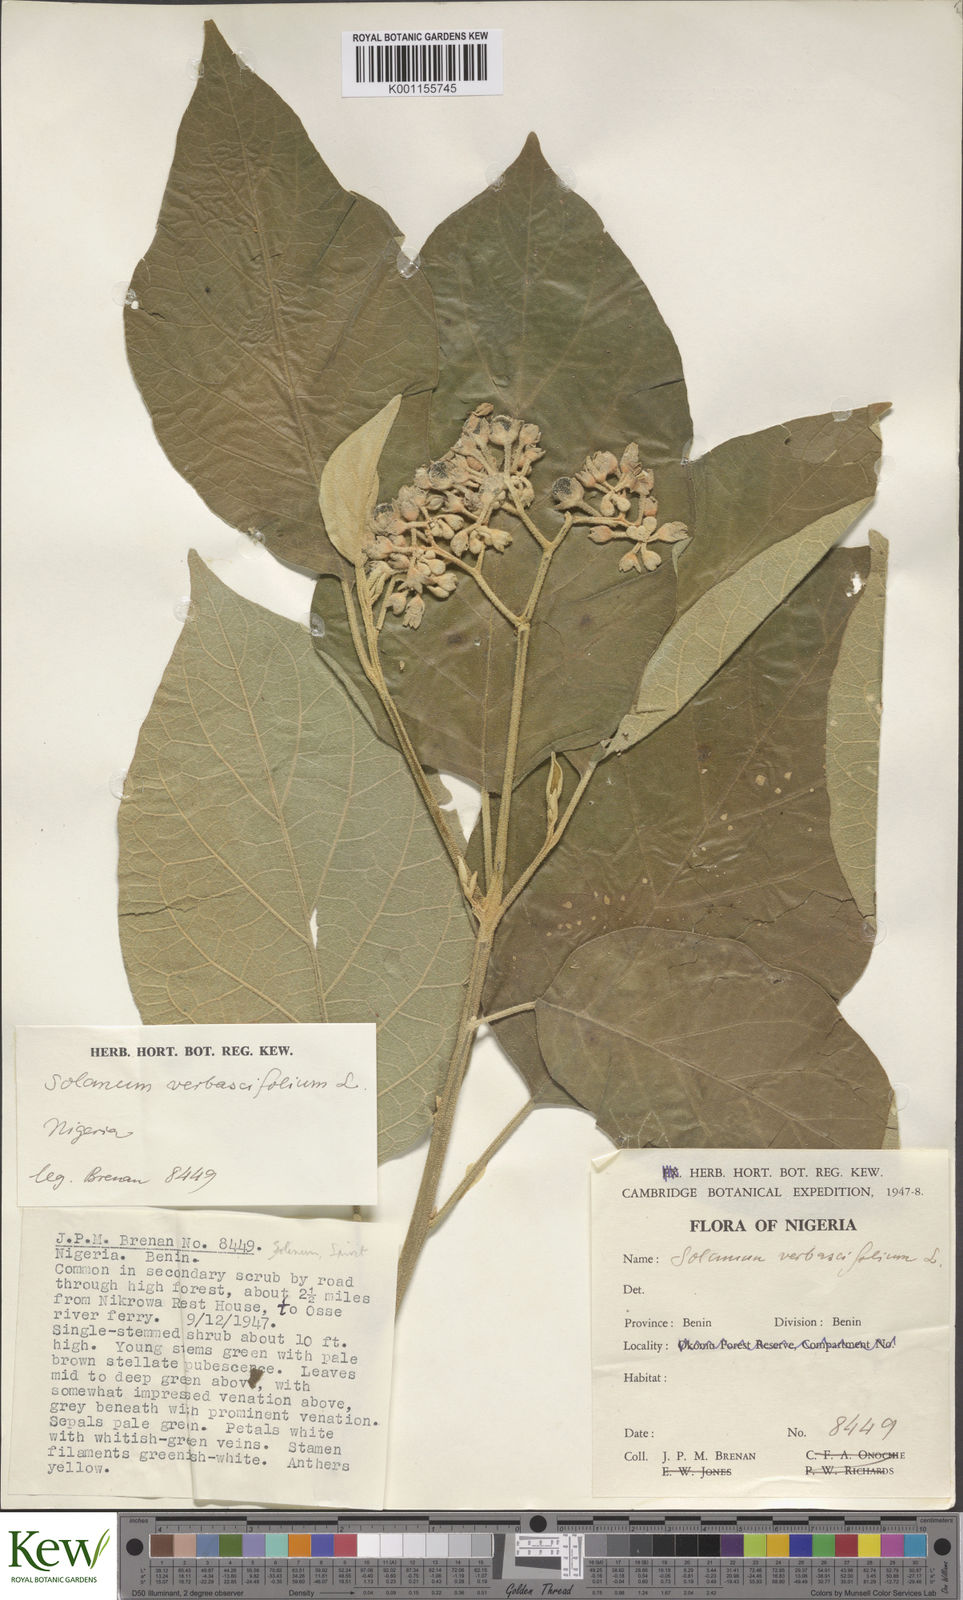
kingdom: Plantae
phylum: Tracheophyta
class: Magnoliopsida
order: Solanales
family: Solanaceae
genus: Solanum
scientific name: Solanum erianthum
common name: Tobacco-tree
